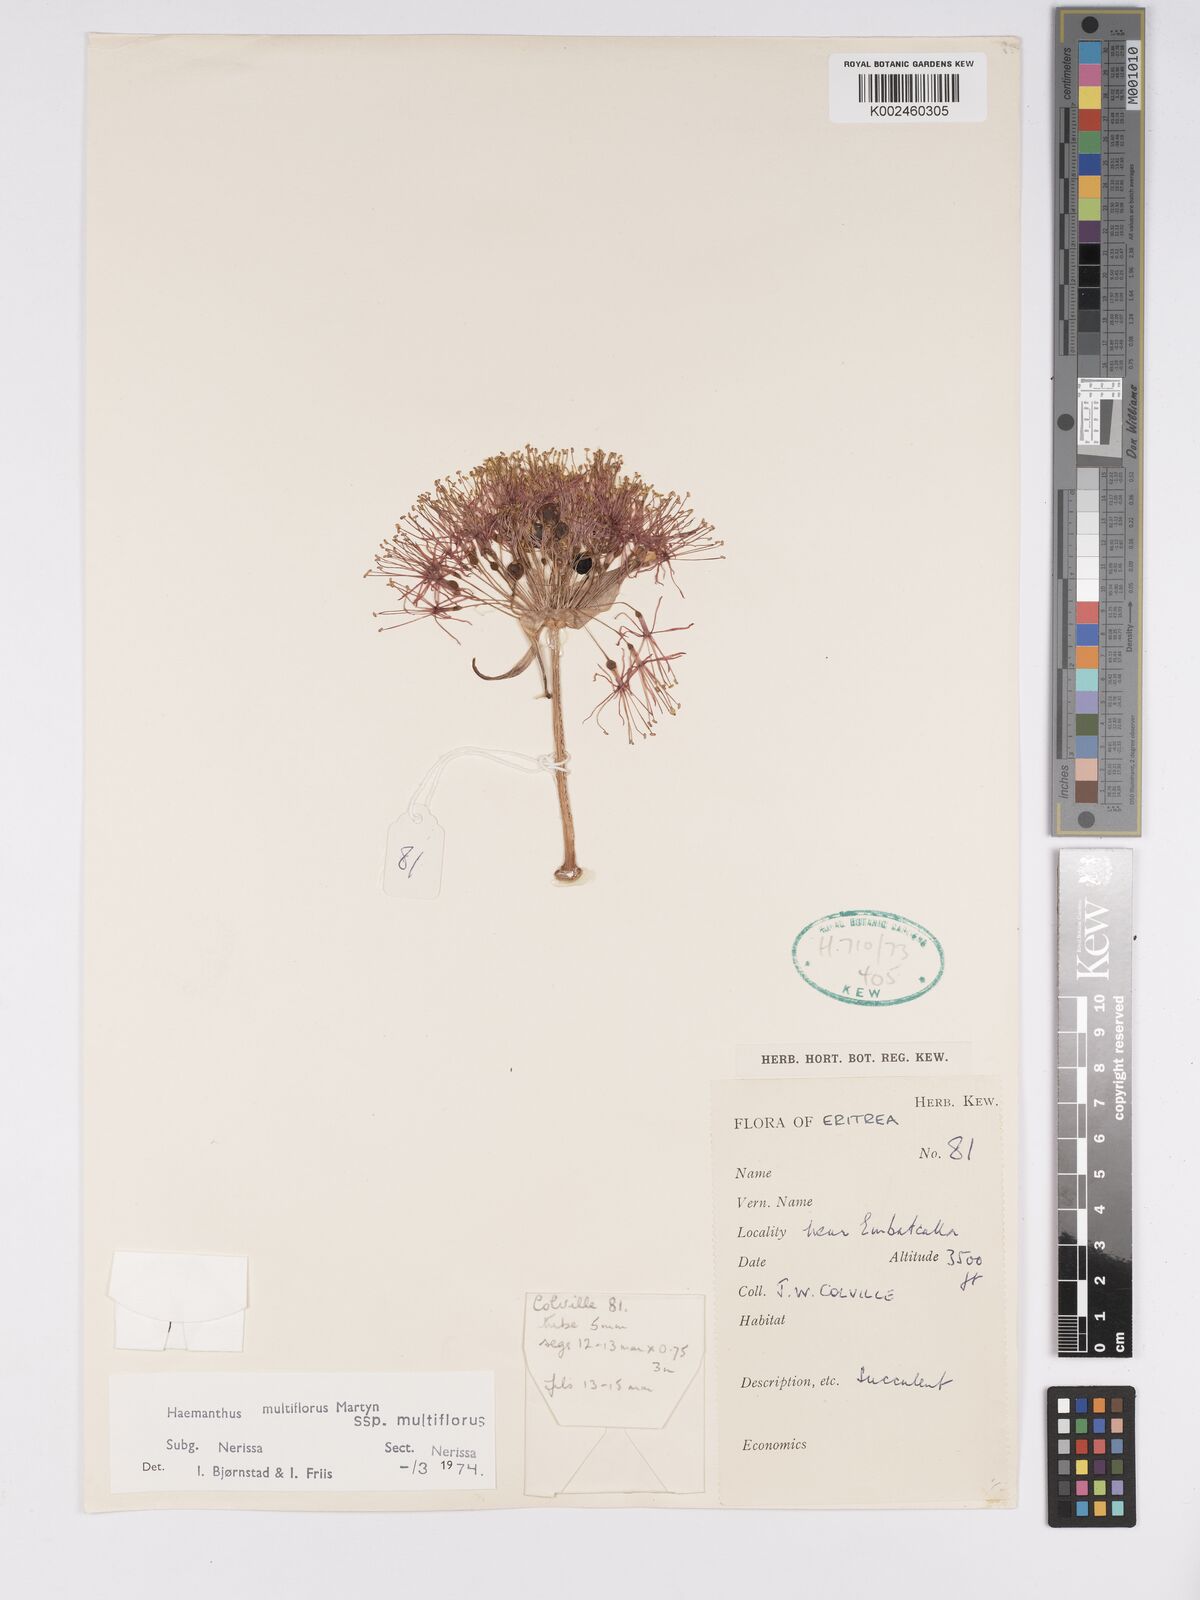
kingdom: Plantae
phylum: Tracheophyta
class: Liliopsida
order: Asparagales
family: Amaryllidaceae
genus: Scadoxus
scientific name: Scadoxus multiflorus
